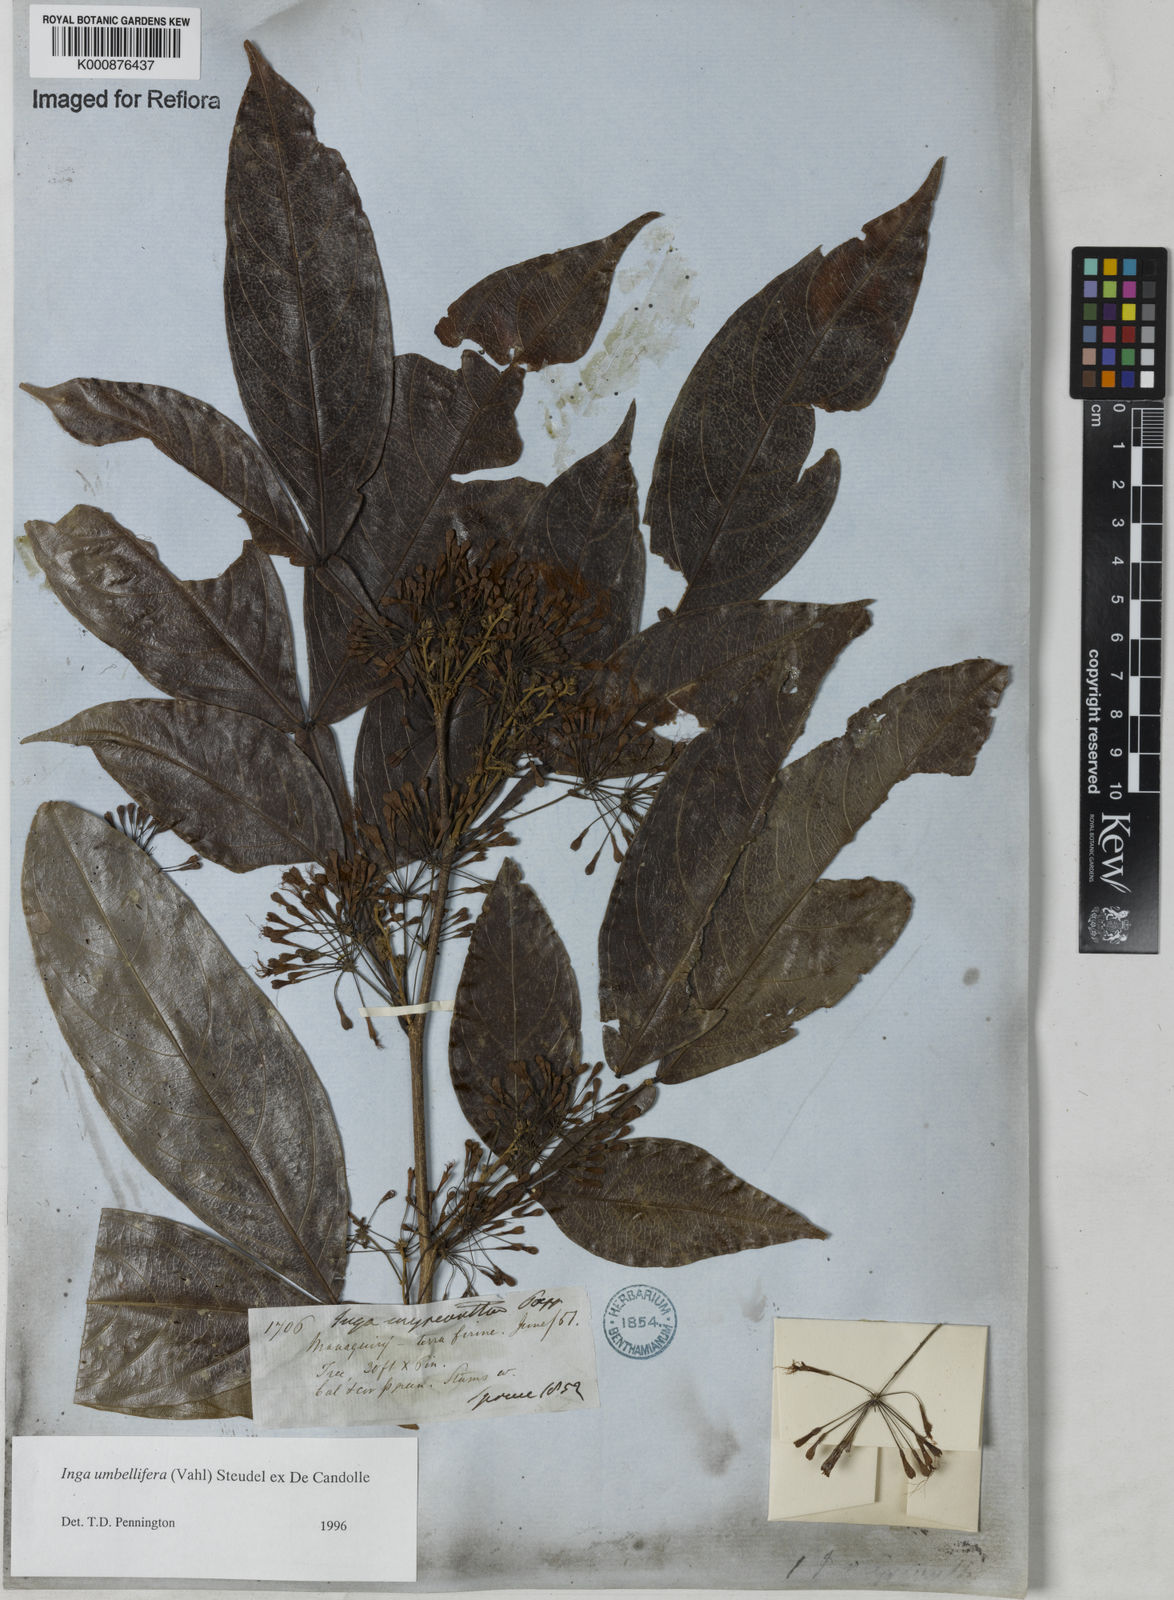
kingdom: Plantae
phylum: Tracheophyta
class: Magnoliopsida
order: Fabales
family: Fabaceae
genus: Inga
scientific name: Inga umbellifera
